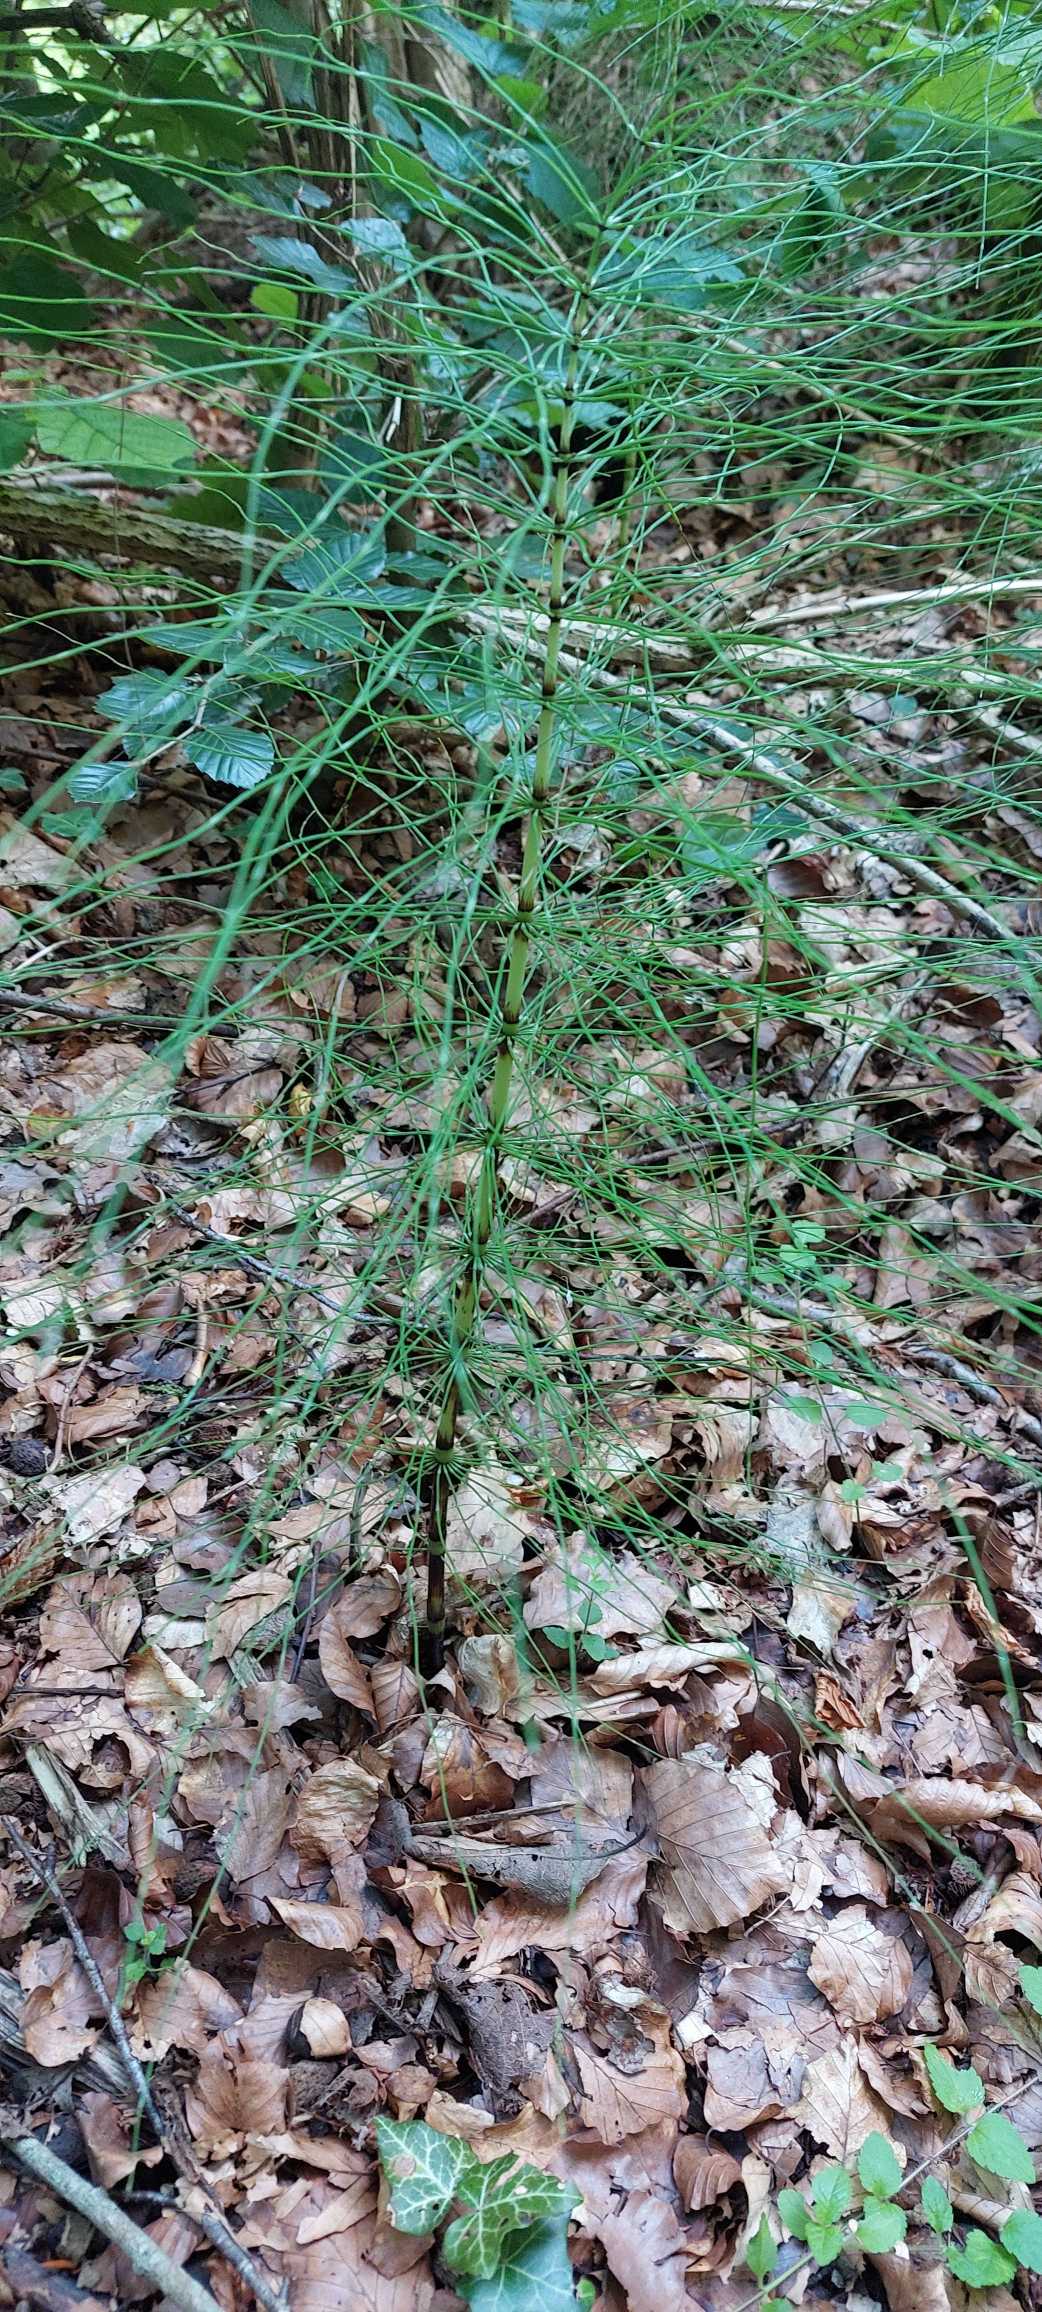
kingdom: Plantae
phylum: Tracheophyta
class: Polypodiopsida
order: Equisetales
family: Equisetaceae
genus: Equisetum
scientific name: Equisetum telmateia
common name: Elfenbens-padderok
